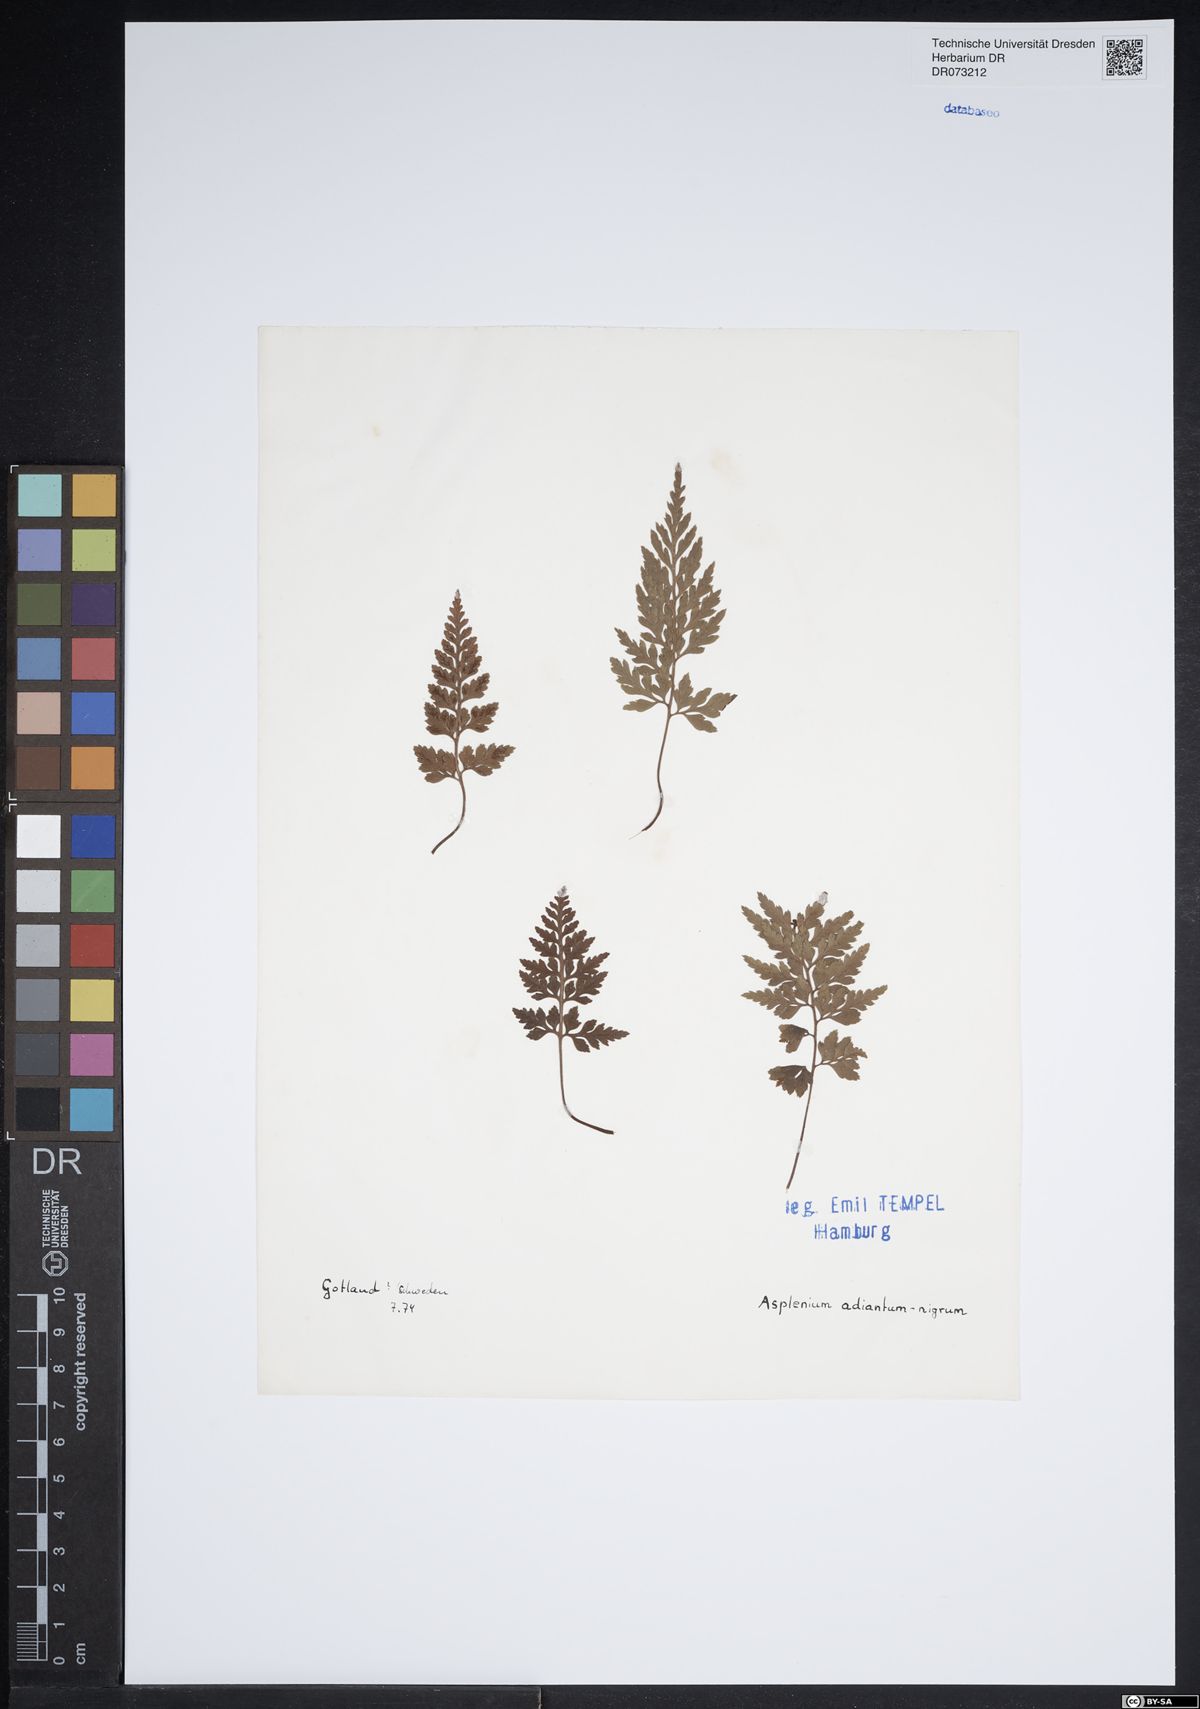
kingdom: Plantae
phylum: Tracheophyta
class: Polypodiopsida
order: Polypodiales
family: Aspleniaceae
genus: Asplenium
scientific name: Asplenium adiantum-nigrum
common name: Black spleenwort
